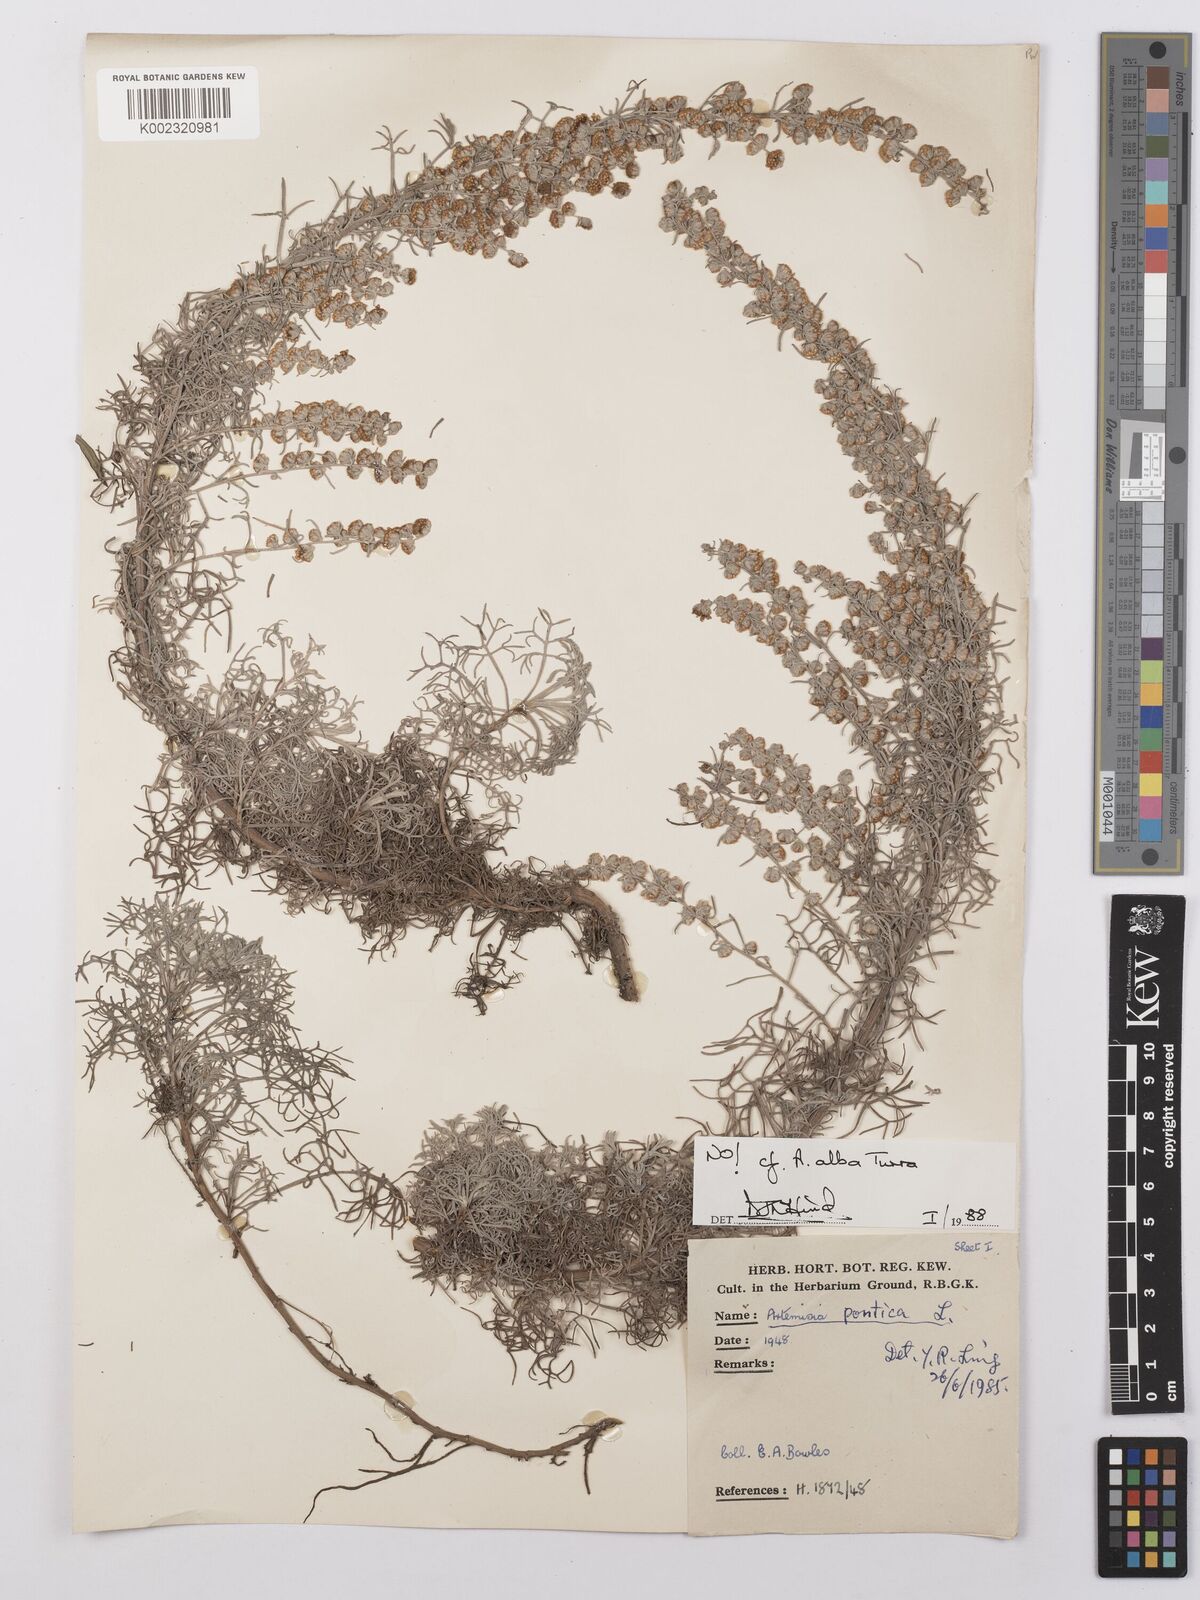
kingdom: Plantae
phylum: Tracheophyta
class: Magnoliopsida
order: Asterales
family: Asteraceae
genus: Artemisia
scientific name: Artemisia
